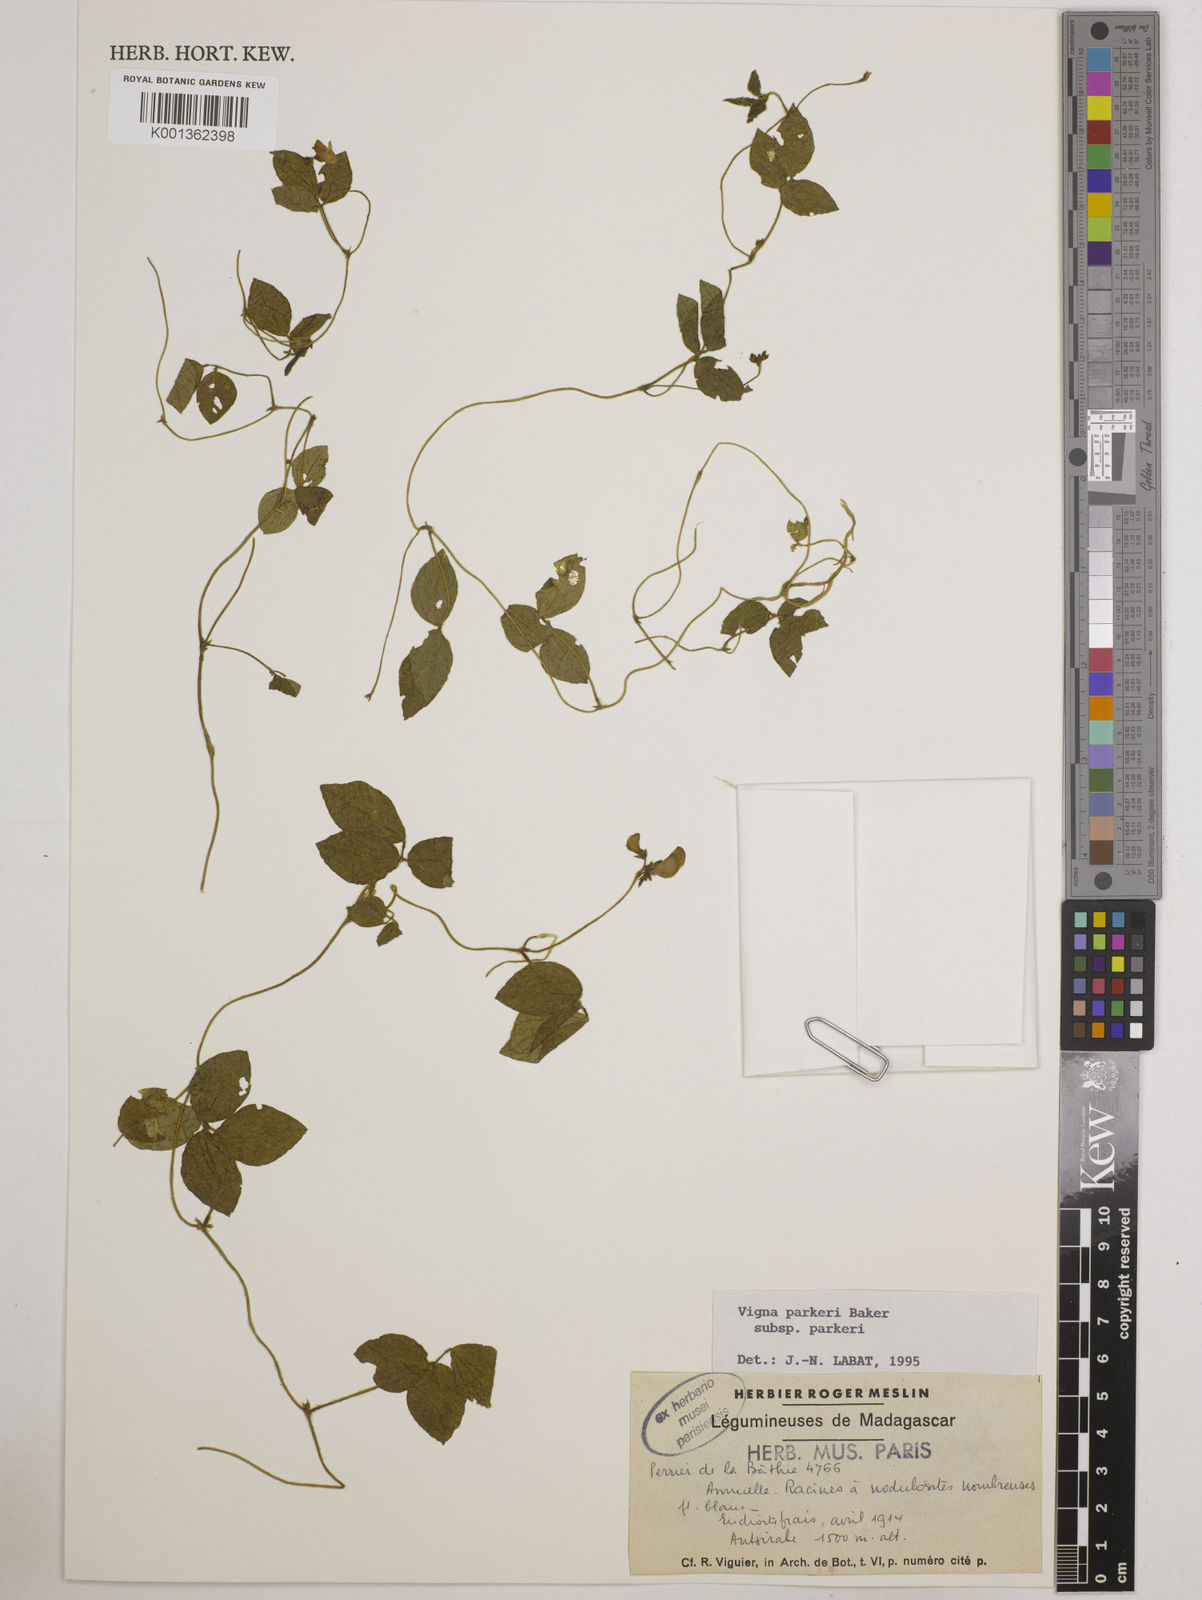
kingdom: Plantae
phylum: Tracheophyta
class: Magnoliopsida
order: Fabales
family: Fabaceae
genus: Vigna
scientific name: Vigna
